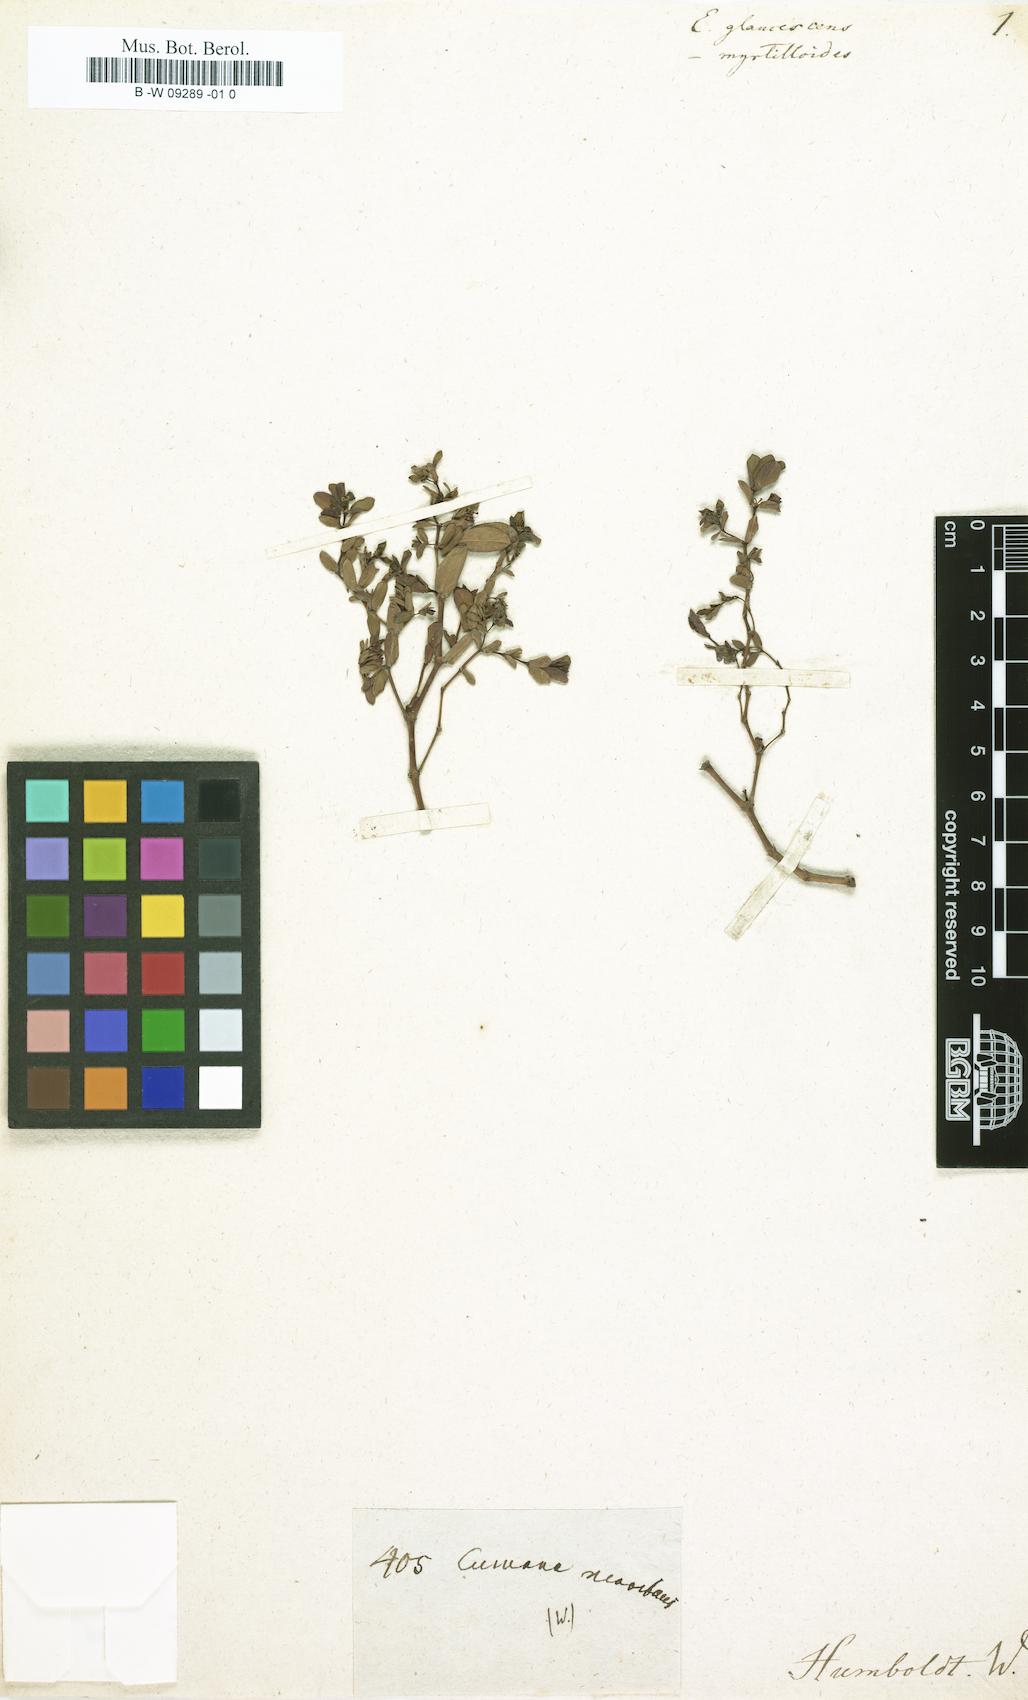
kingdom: Plantae
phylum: Tracheophyta
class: Magnoliopsida
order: Malpighiales
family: Euphorbiaceae
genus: Euphorbia
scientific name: Euphorbia glaucescens
